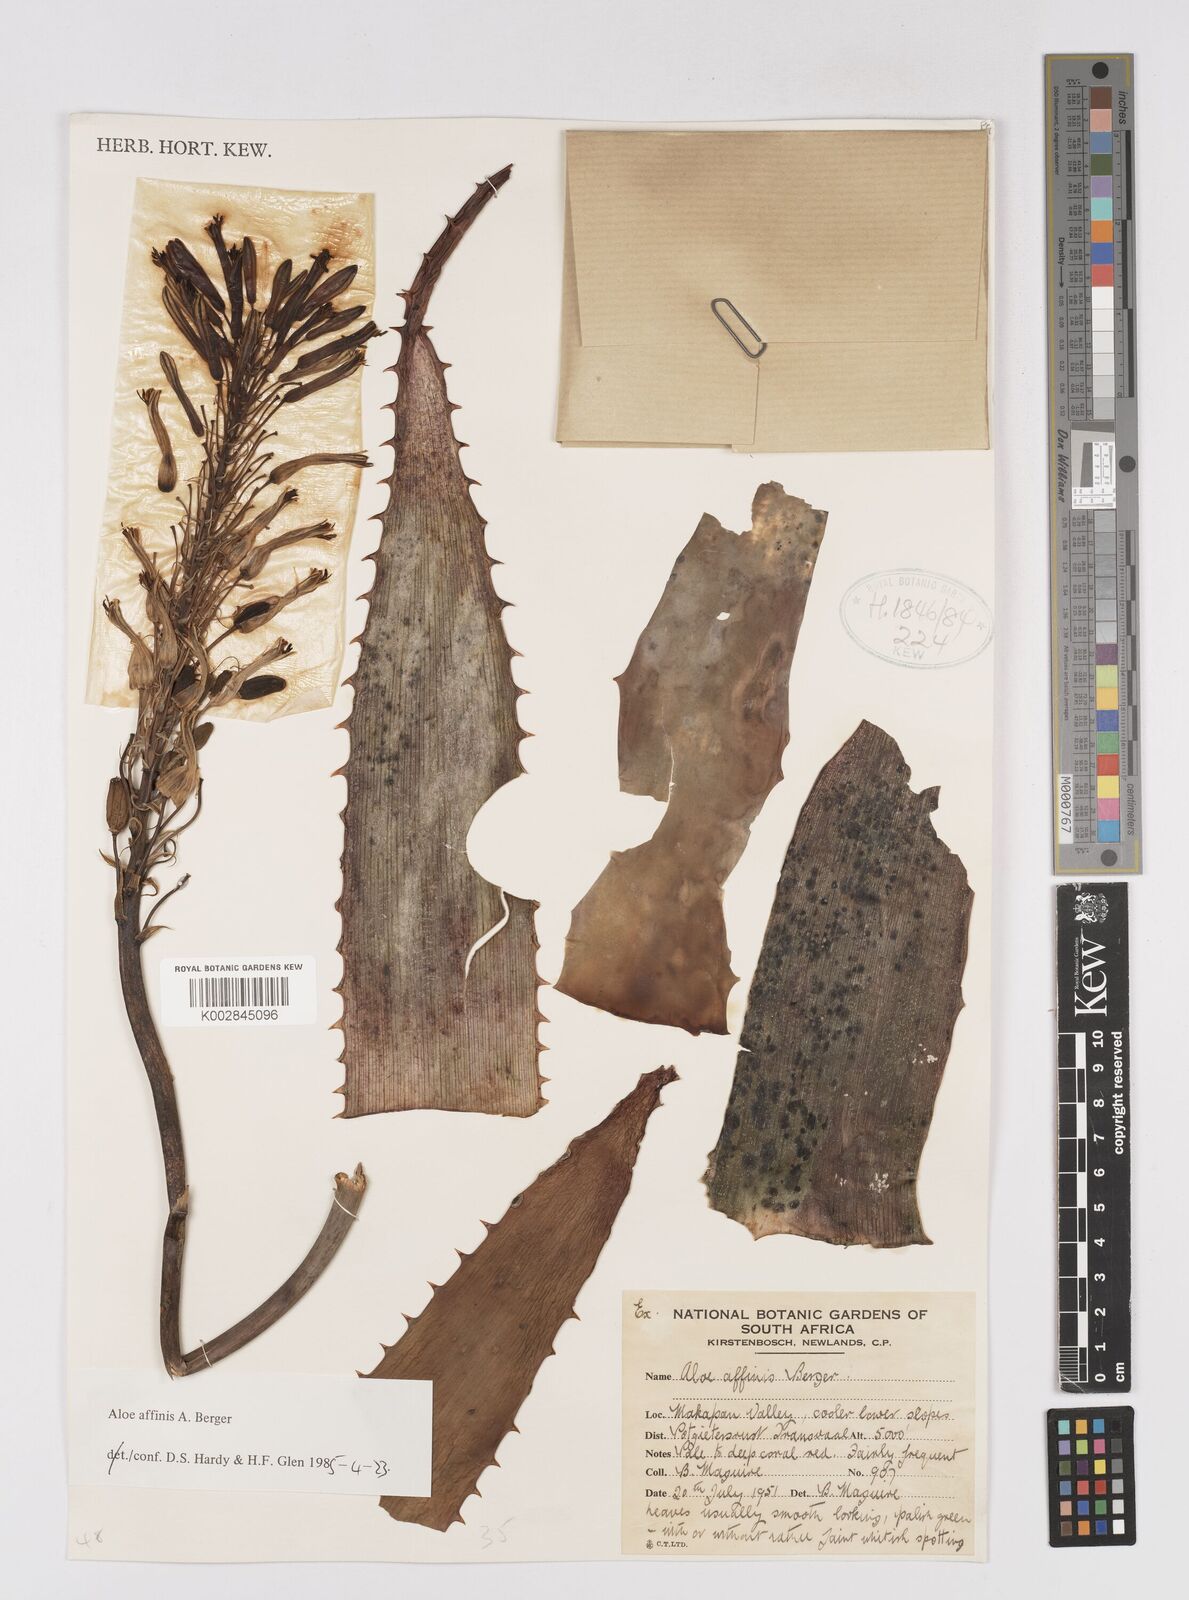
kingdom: Plantae
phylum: Tracheophyta
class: Liliopsida
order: Asparagales
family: Asphodelaceae
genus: Aloe
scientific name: Aloe affinis
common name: Spotted aloe
